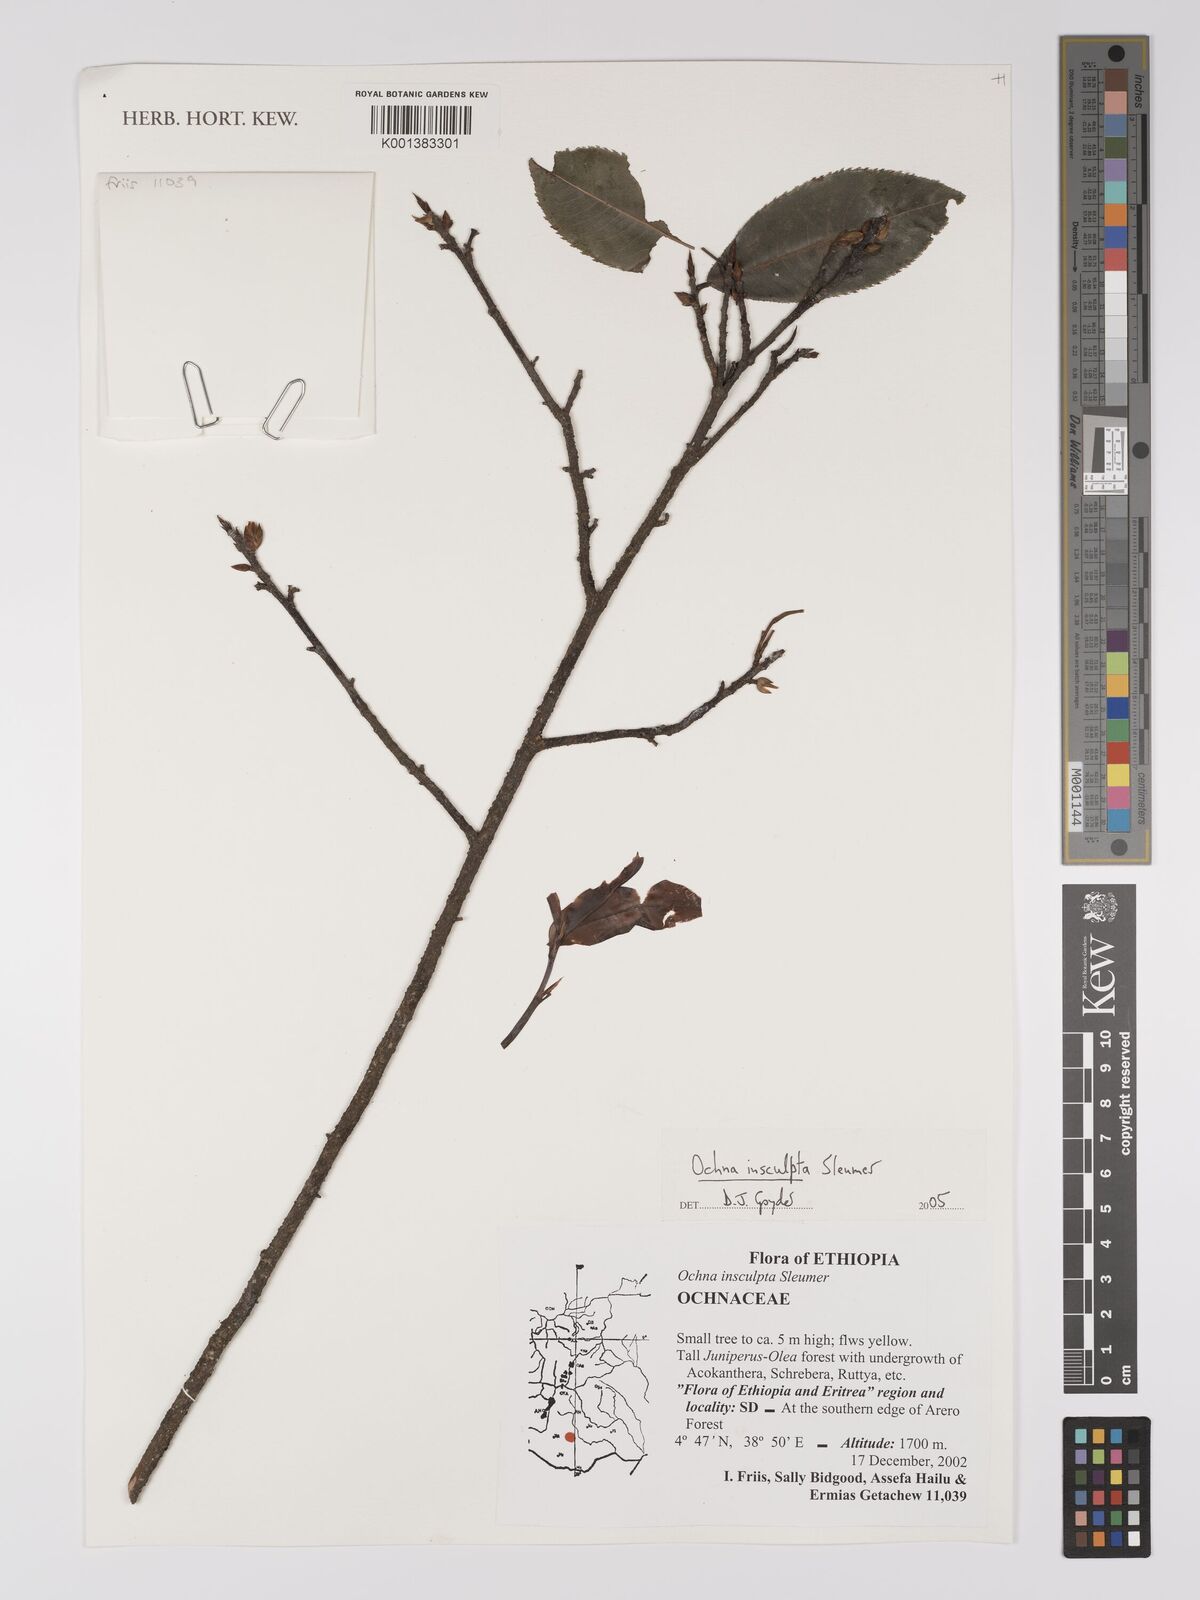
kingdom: Plantae
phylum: Tracheophyta
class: Magnoliopsida
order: Malpighiales
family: Ochnaceae
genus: Ochna
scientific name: Ochna insculpta
